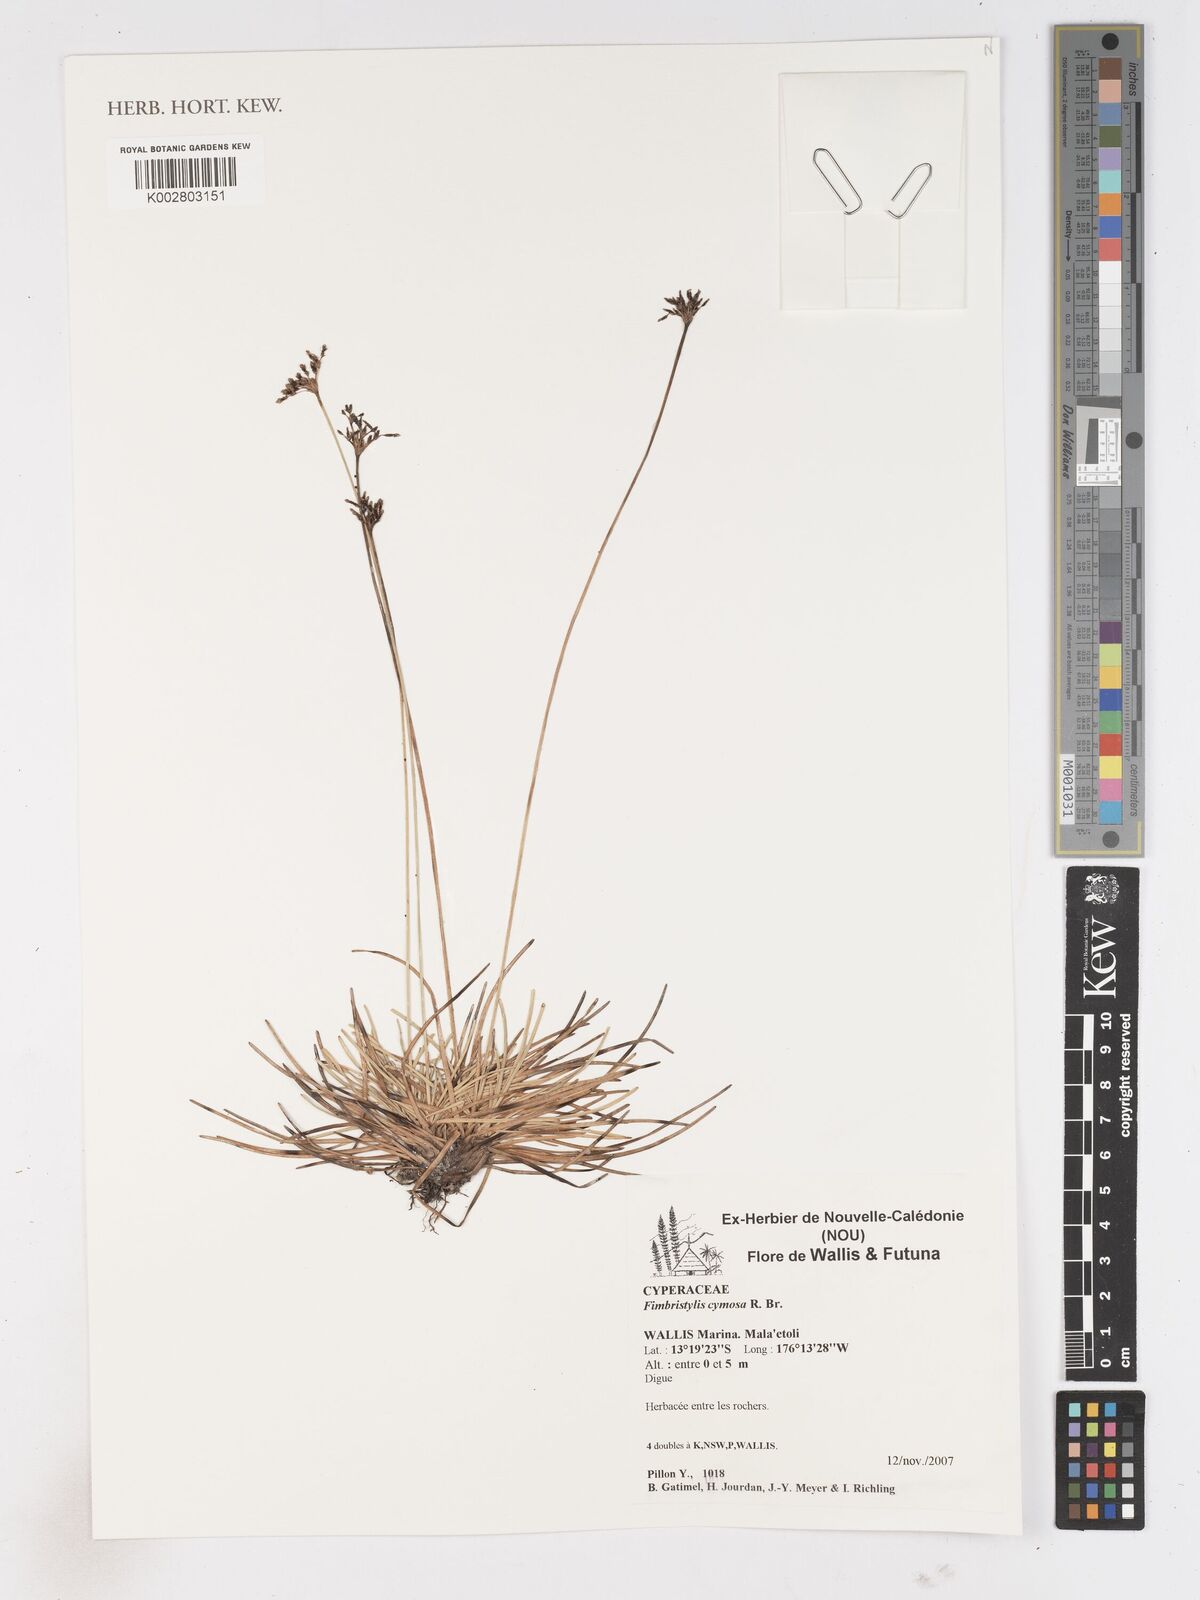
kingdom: Plantae
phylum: Tracheophyta
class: Liliopsida
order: Poales
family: Cyperaceae
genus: Fimbristylis
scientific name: Fimbristylis cymosa
